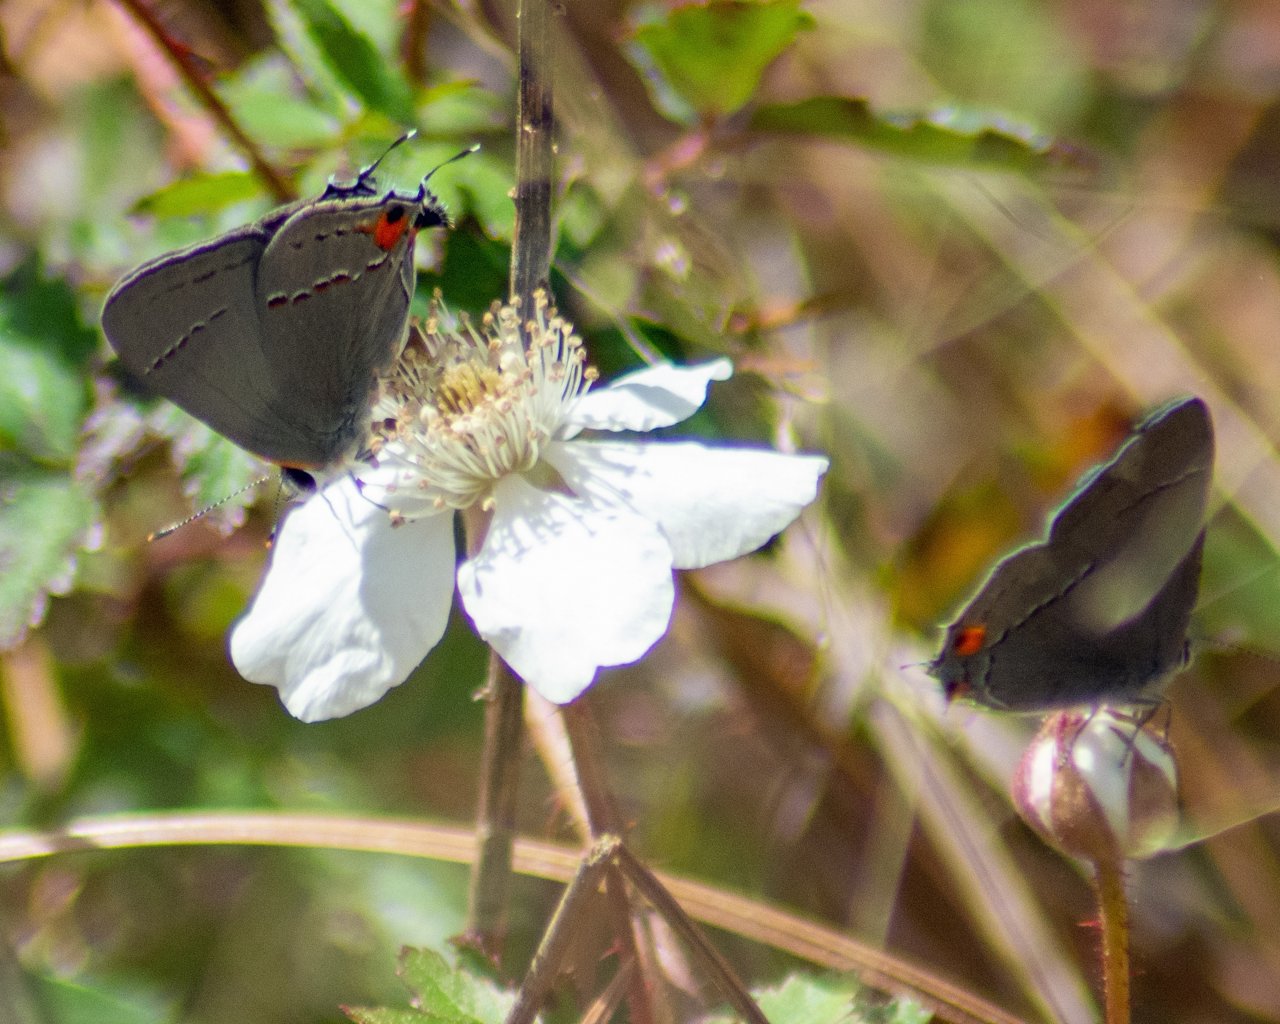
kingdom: Animalia
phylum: Arthropoda
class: Insecta
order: Lepidoptera
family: Lycaenidae
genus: Strymon
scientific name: Strymon melinus
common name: Gray Hairstreak
